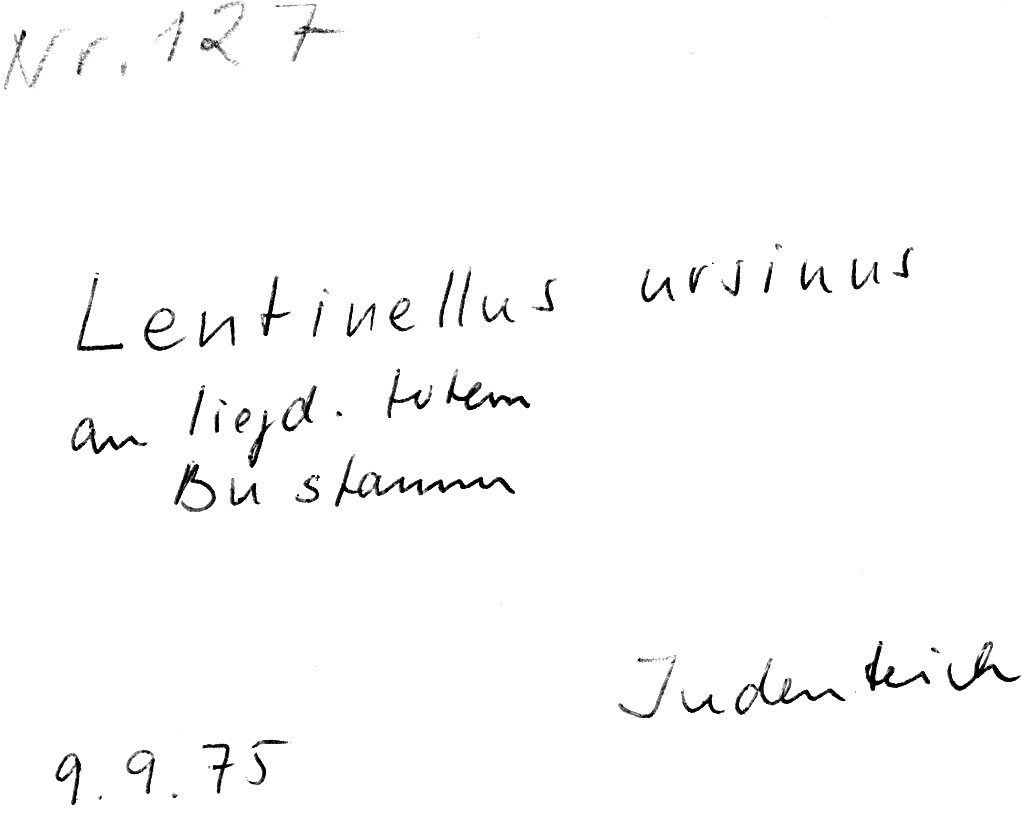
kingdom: Fungi
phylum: Basidiomycota
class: Agaricomycetes
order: Russulales
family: Auriscalpiaceae
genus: Lentinellus
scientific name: Lentinellus ursinus
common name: Bear lentinus
